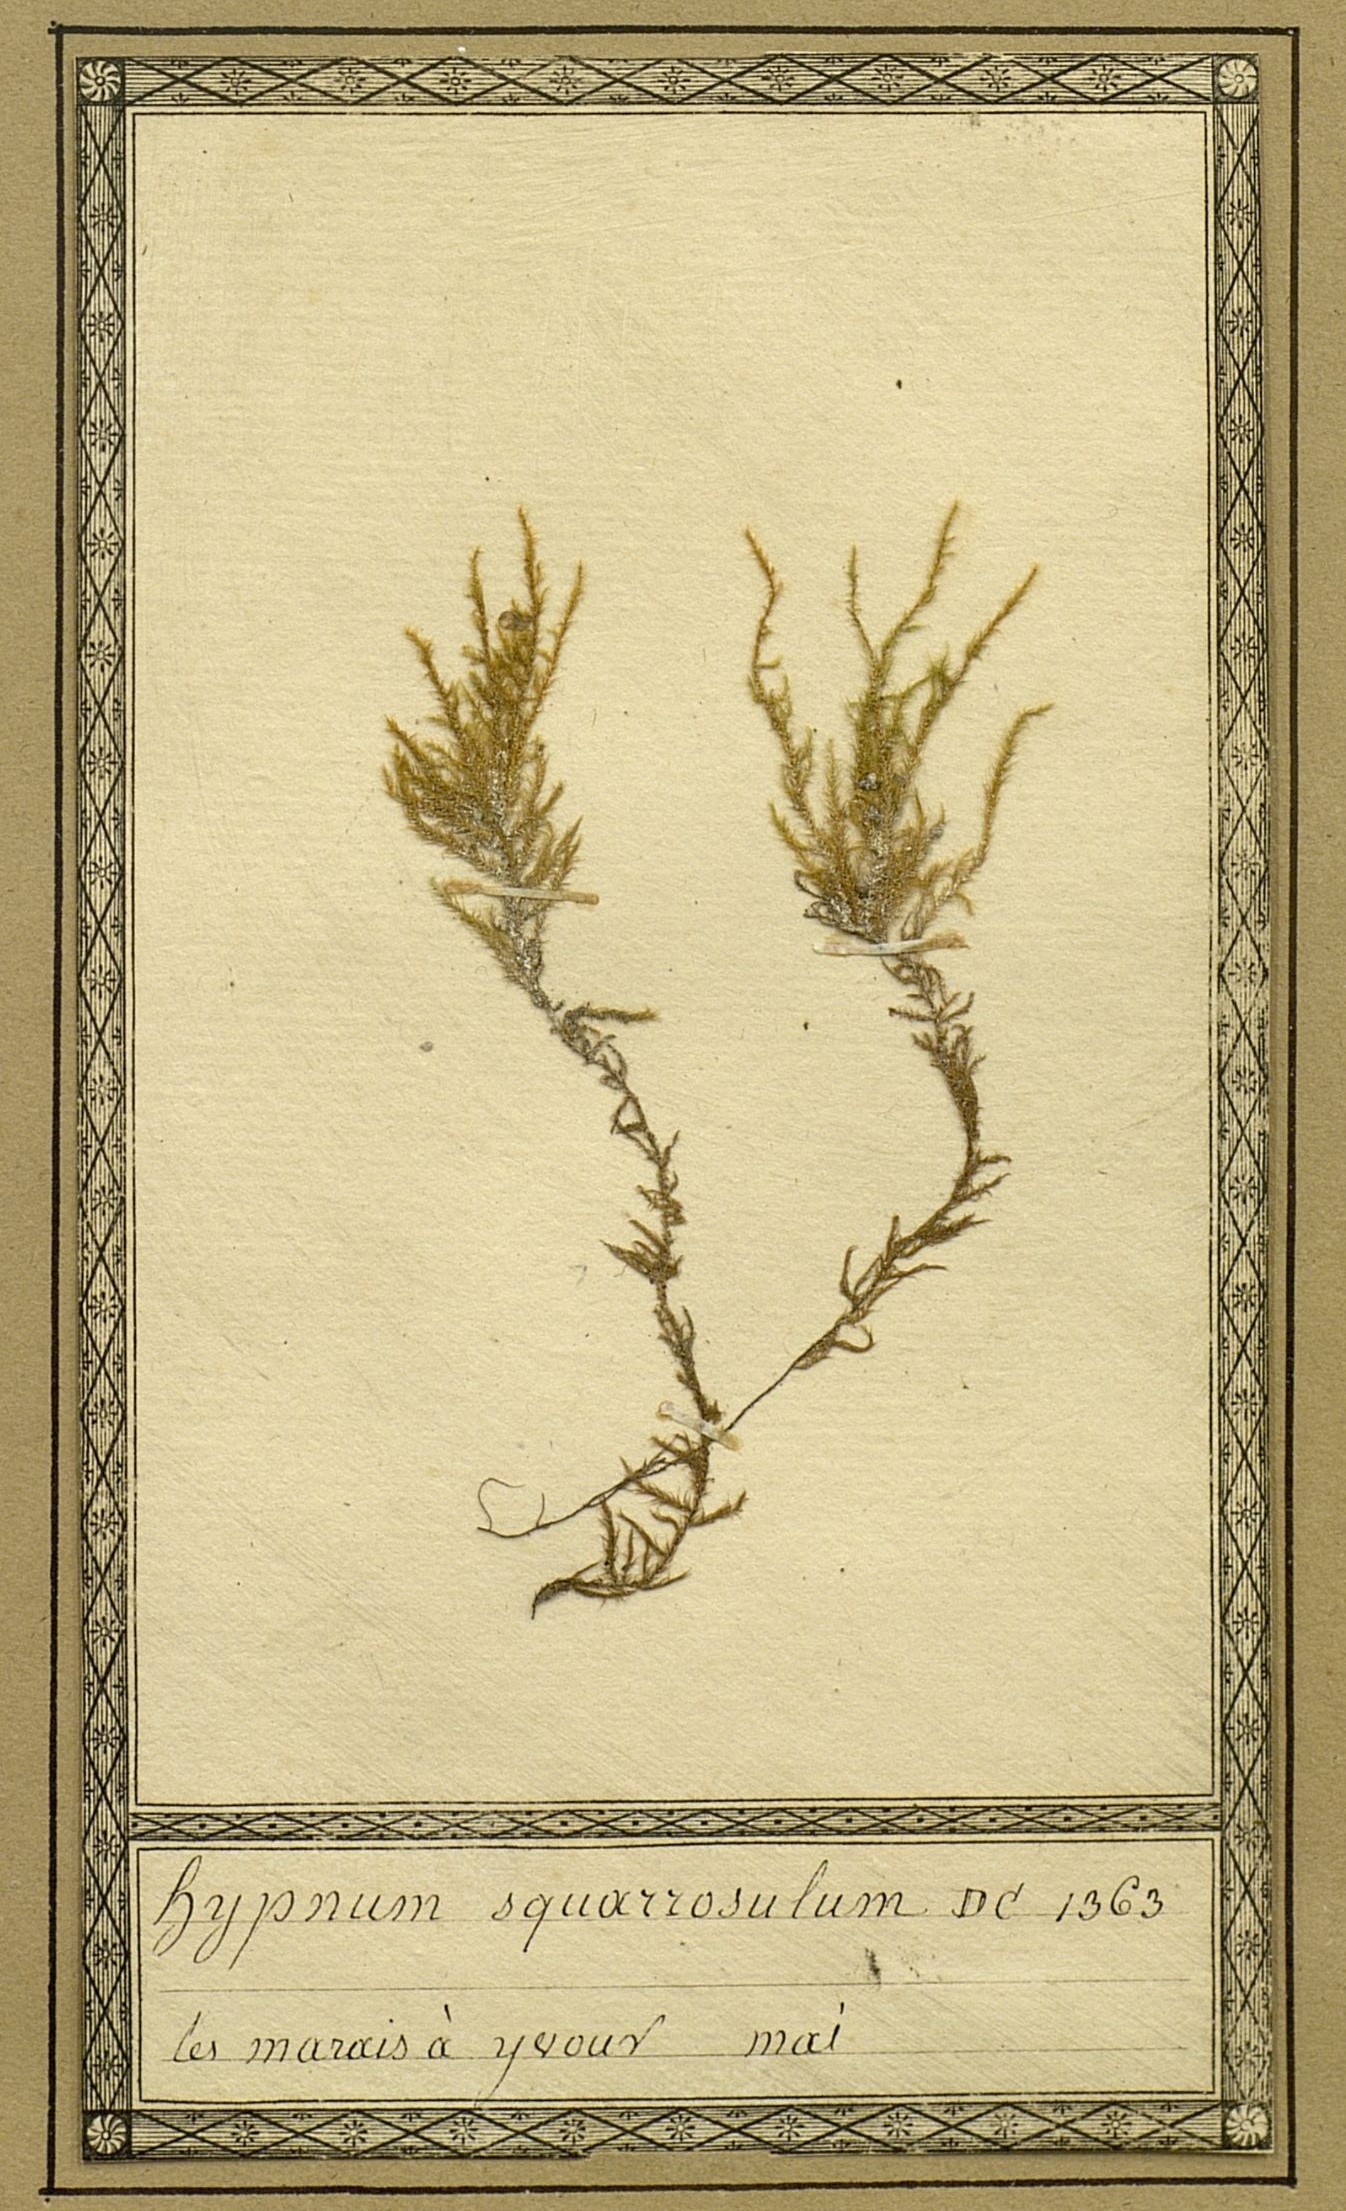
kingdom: Plantae
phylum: Bryophyta
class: Bryopsida
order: Hypnales
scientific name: Hypnales
